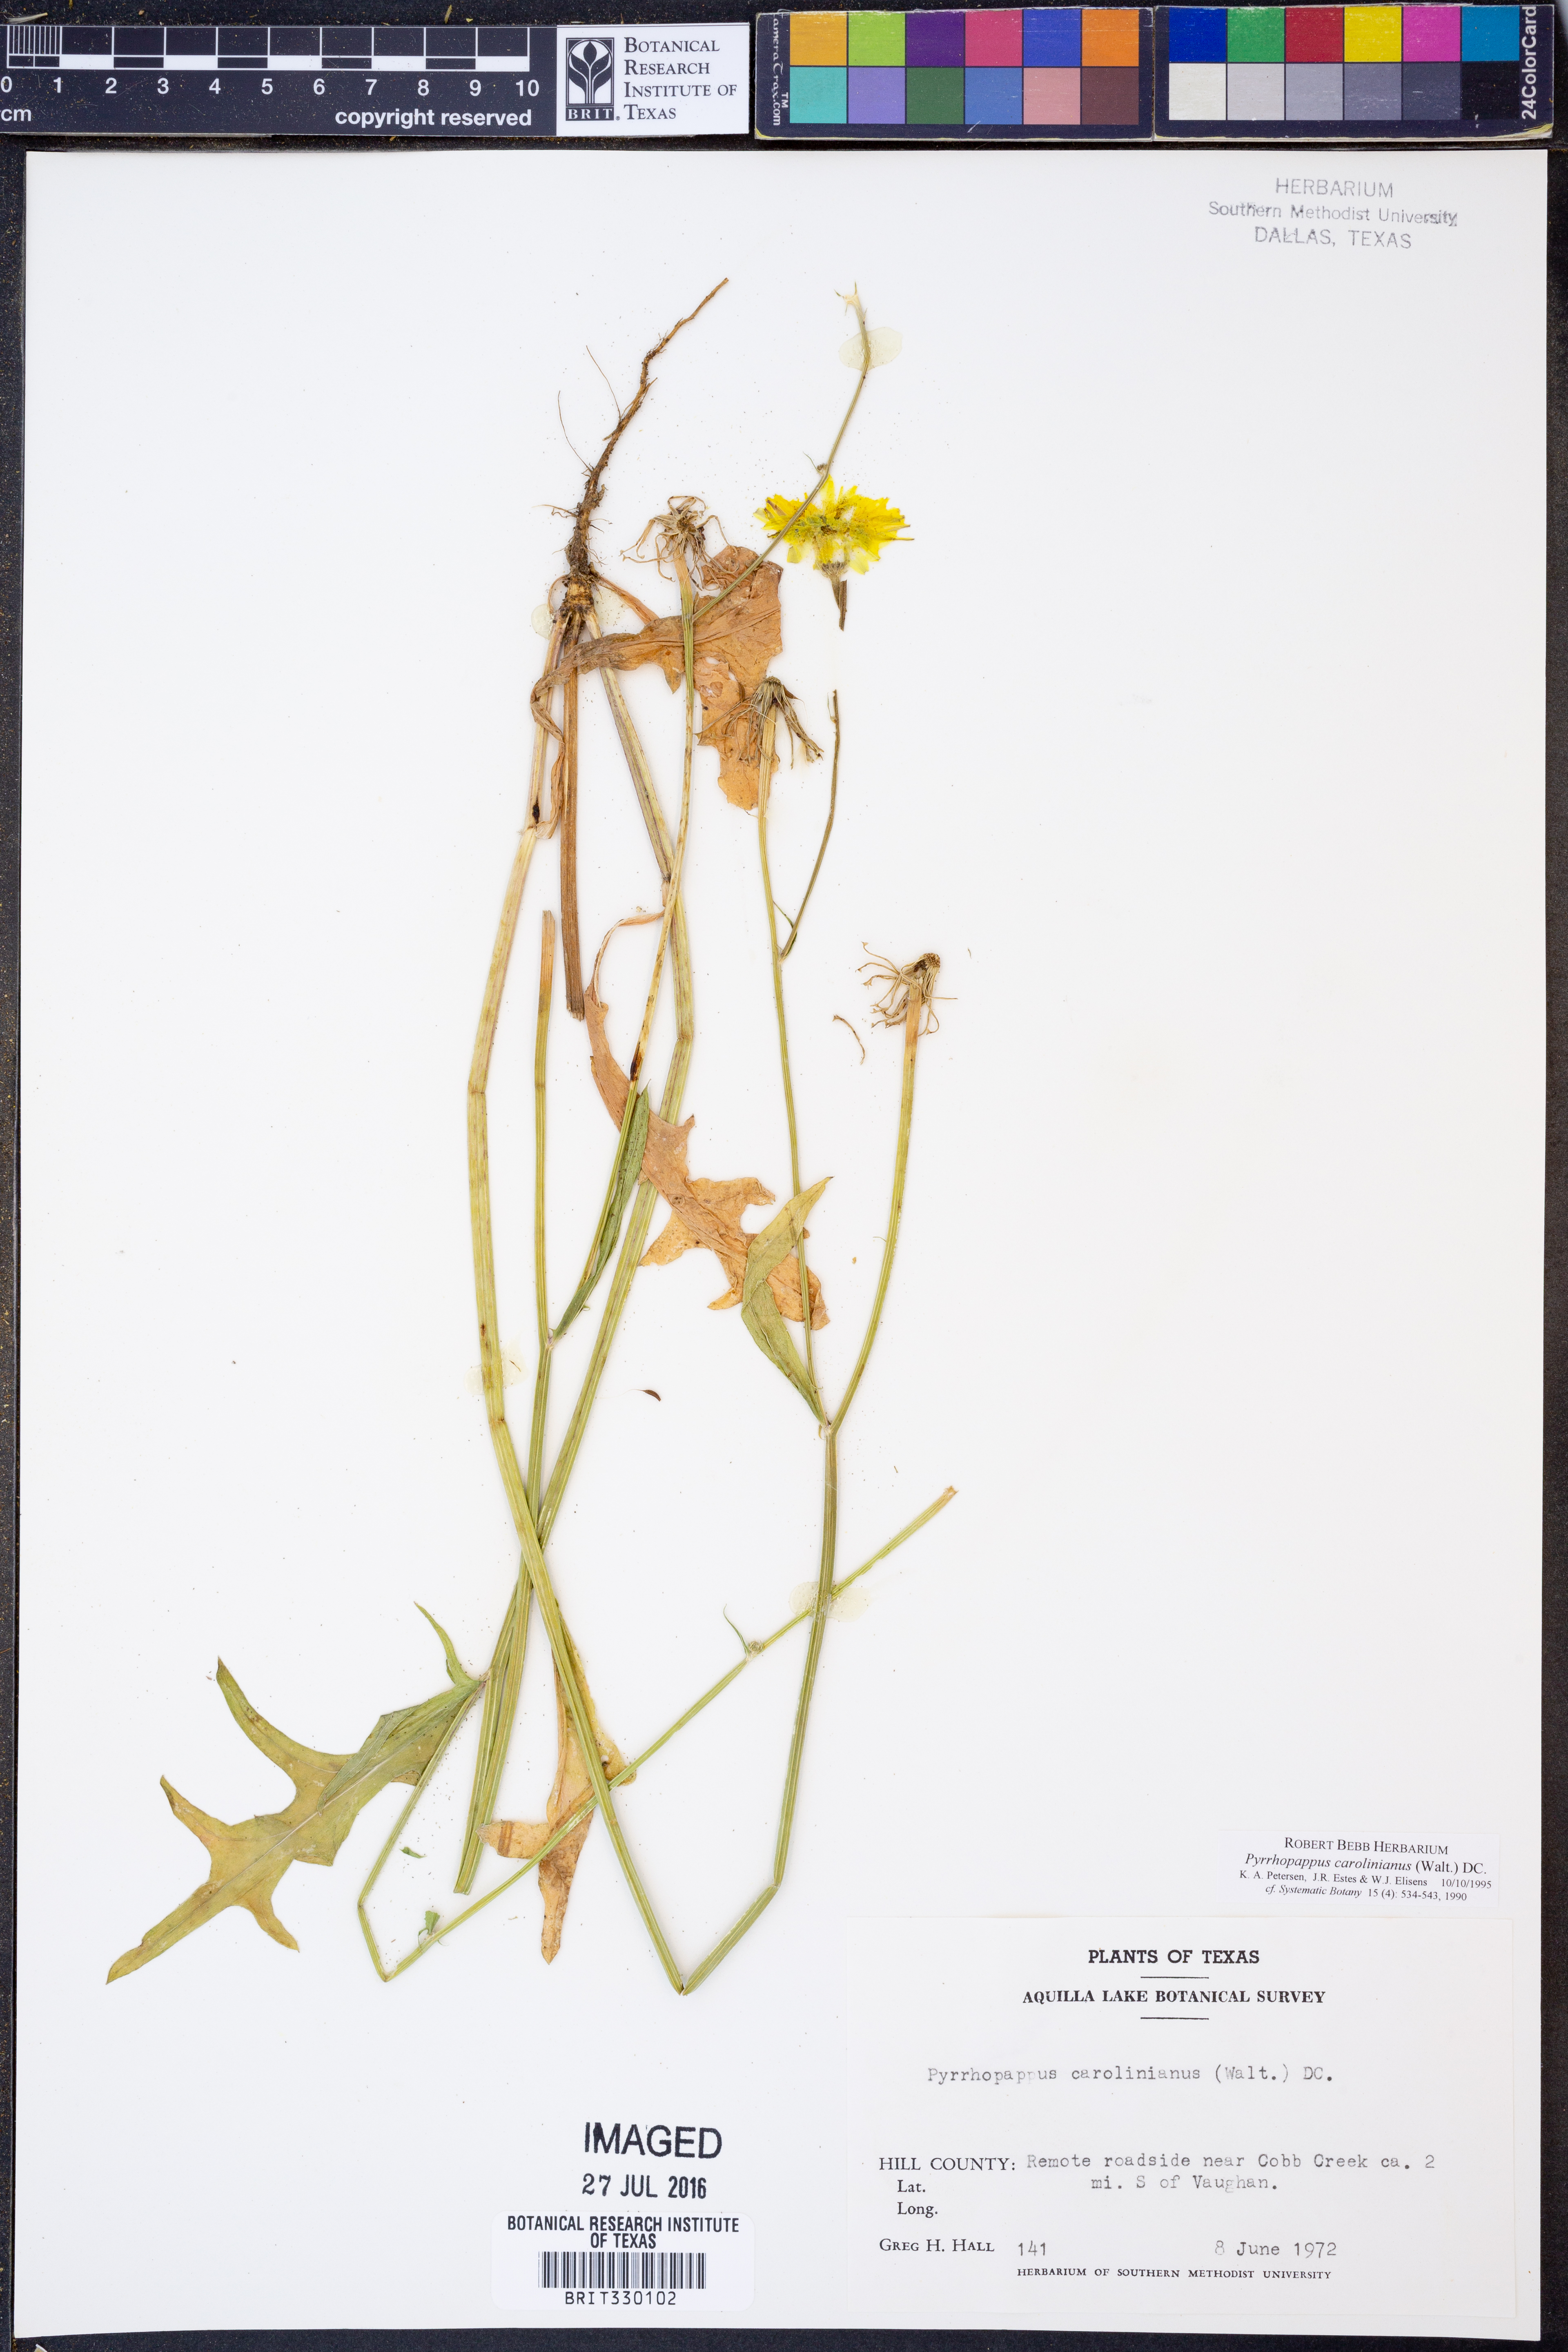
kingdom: Plantae
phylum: Tracheophyta
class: Magnoliopsida
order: Asterales
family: Asteraceae
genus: Pyrrhopappus
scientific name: Pyrrhopappus carolinianus
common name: Carolina desert-chicory
